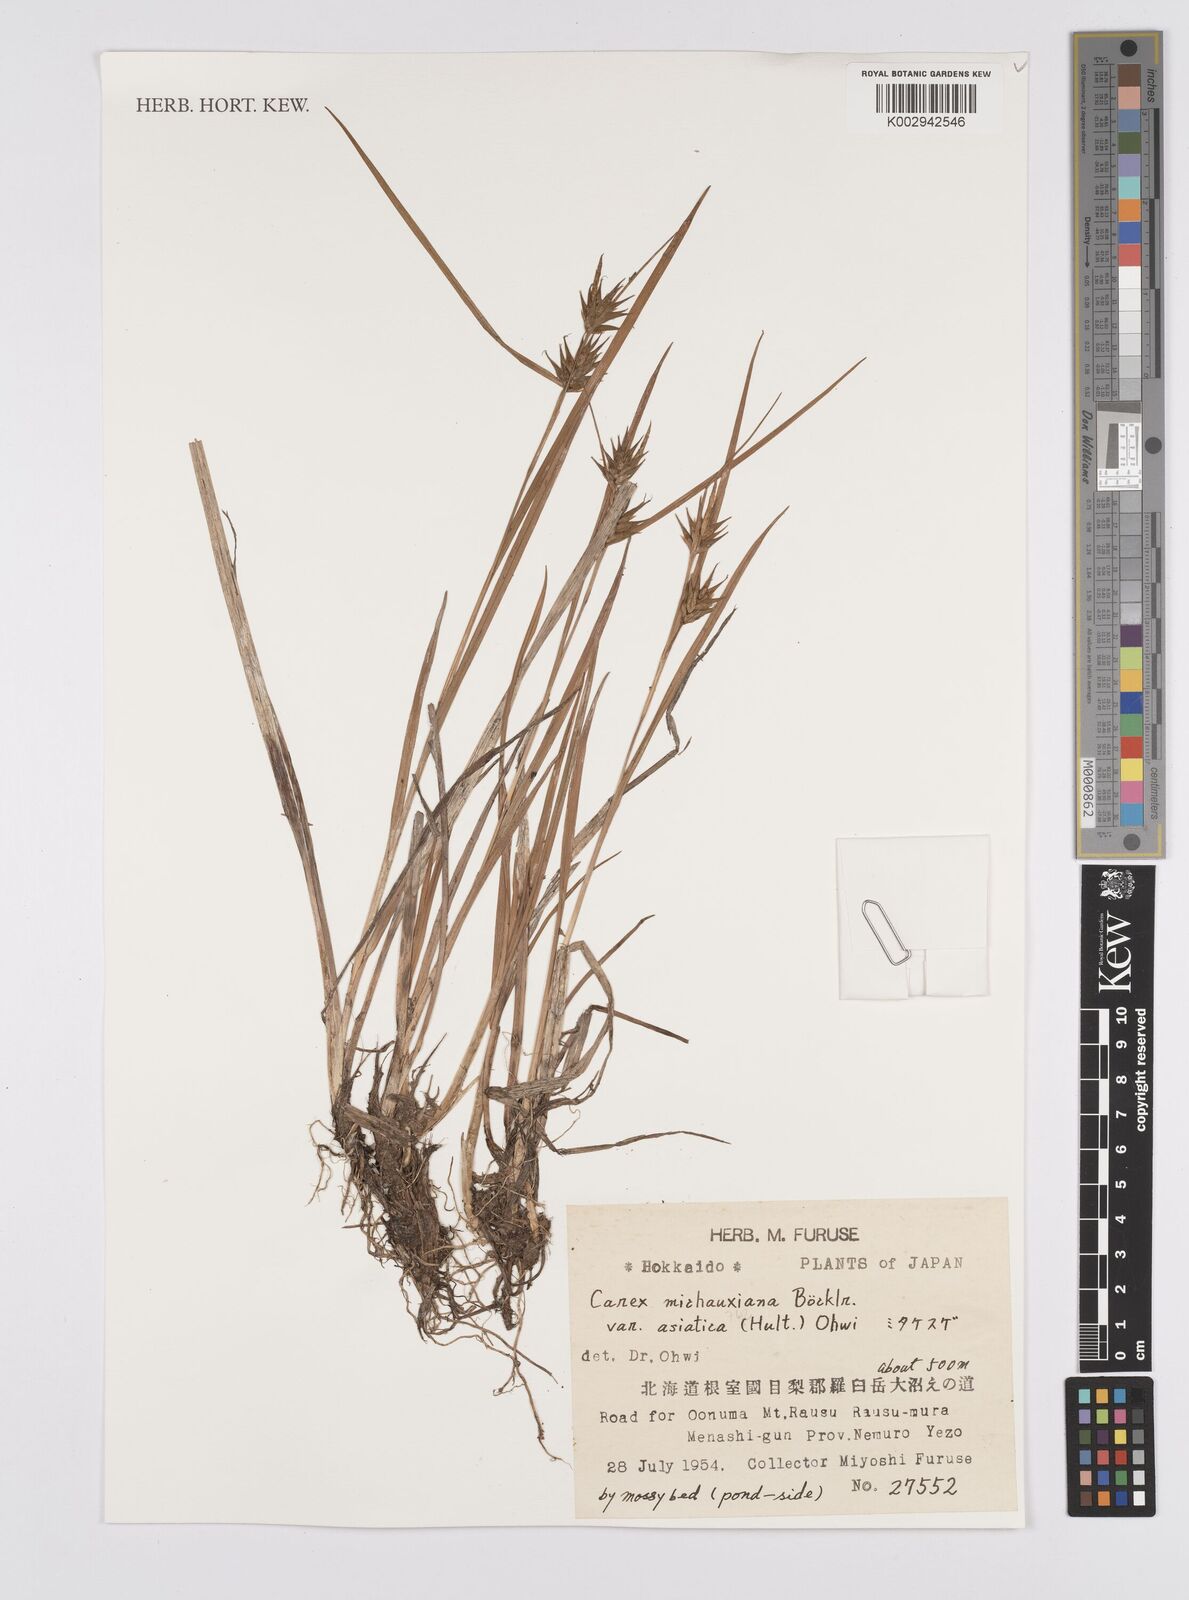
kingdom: Plantae
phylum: Tracheophyta
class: Liliopsida
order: Poales
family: Cyperaceae
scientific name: Cyperaceae
